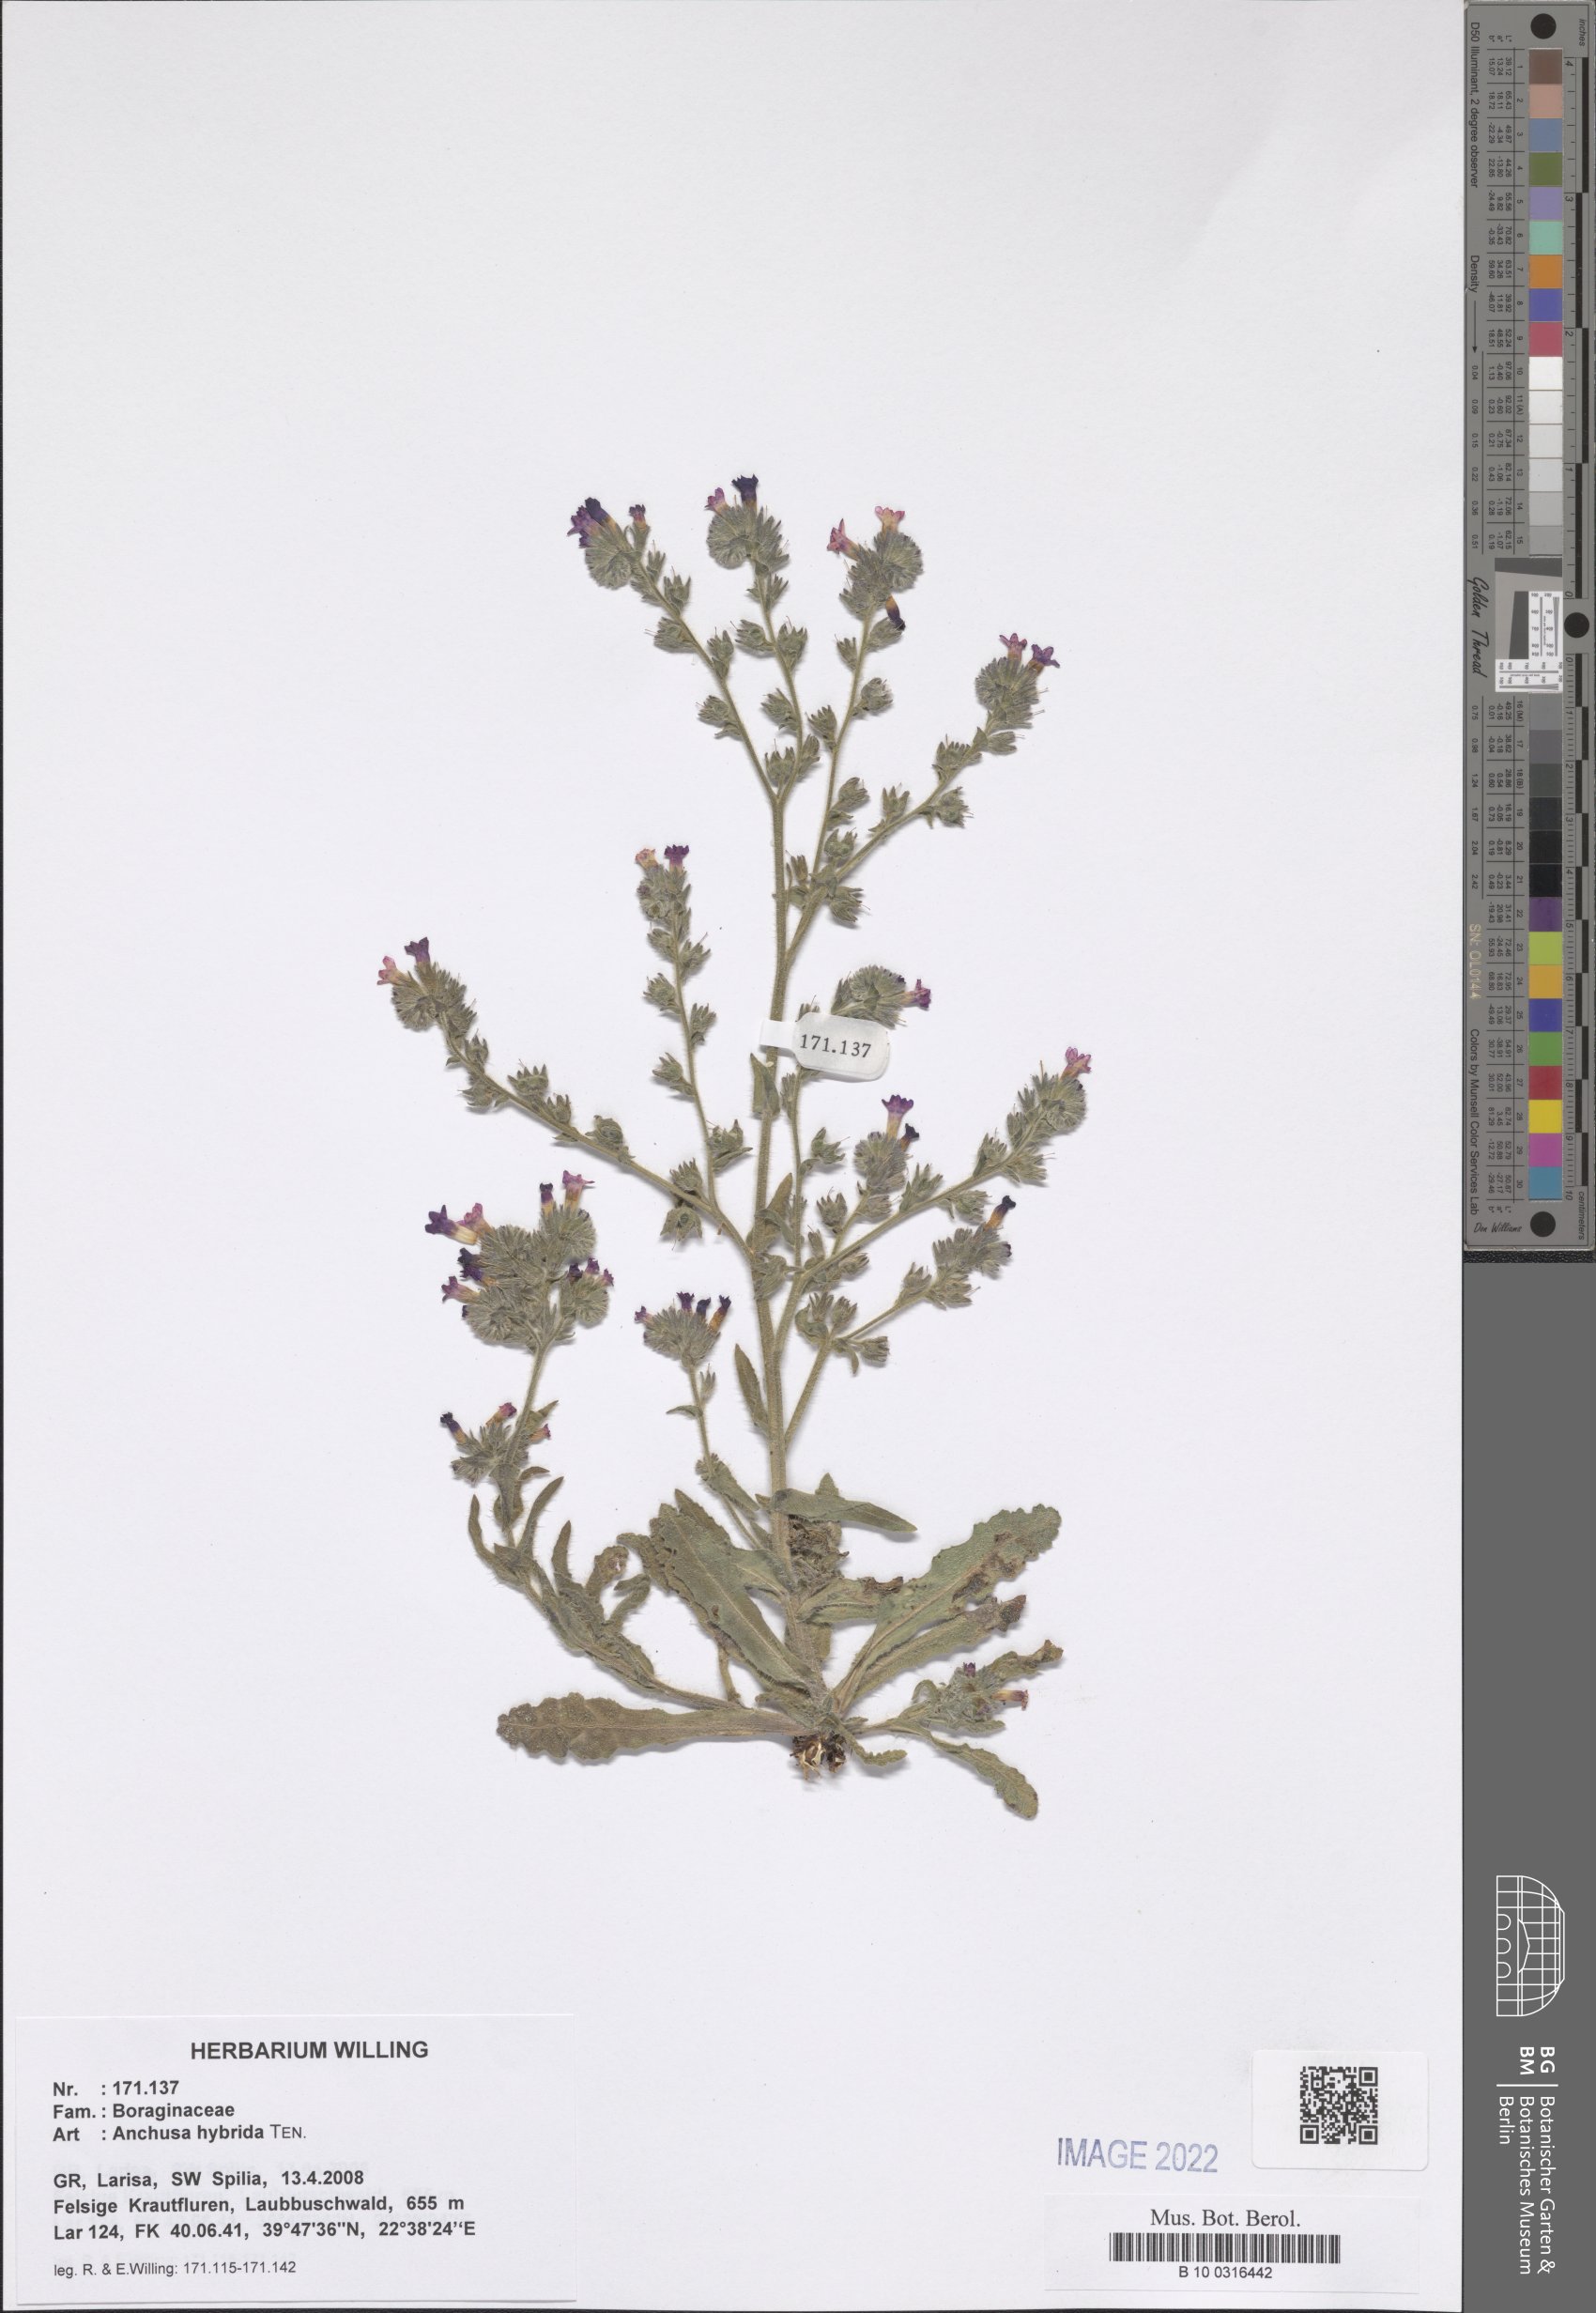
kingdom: Plantae
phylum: Tracheophyta
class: Magnoliopsida
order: Boraginales
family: Boraginaceae
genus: Anchusa
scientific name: Anchusa hybrida
